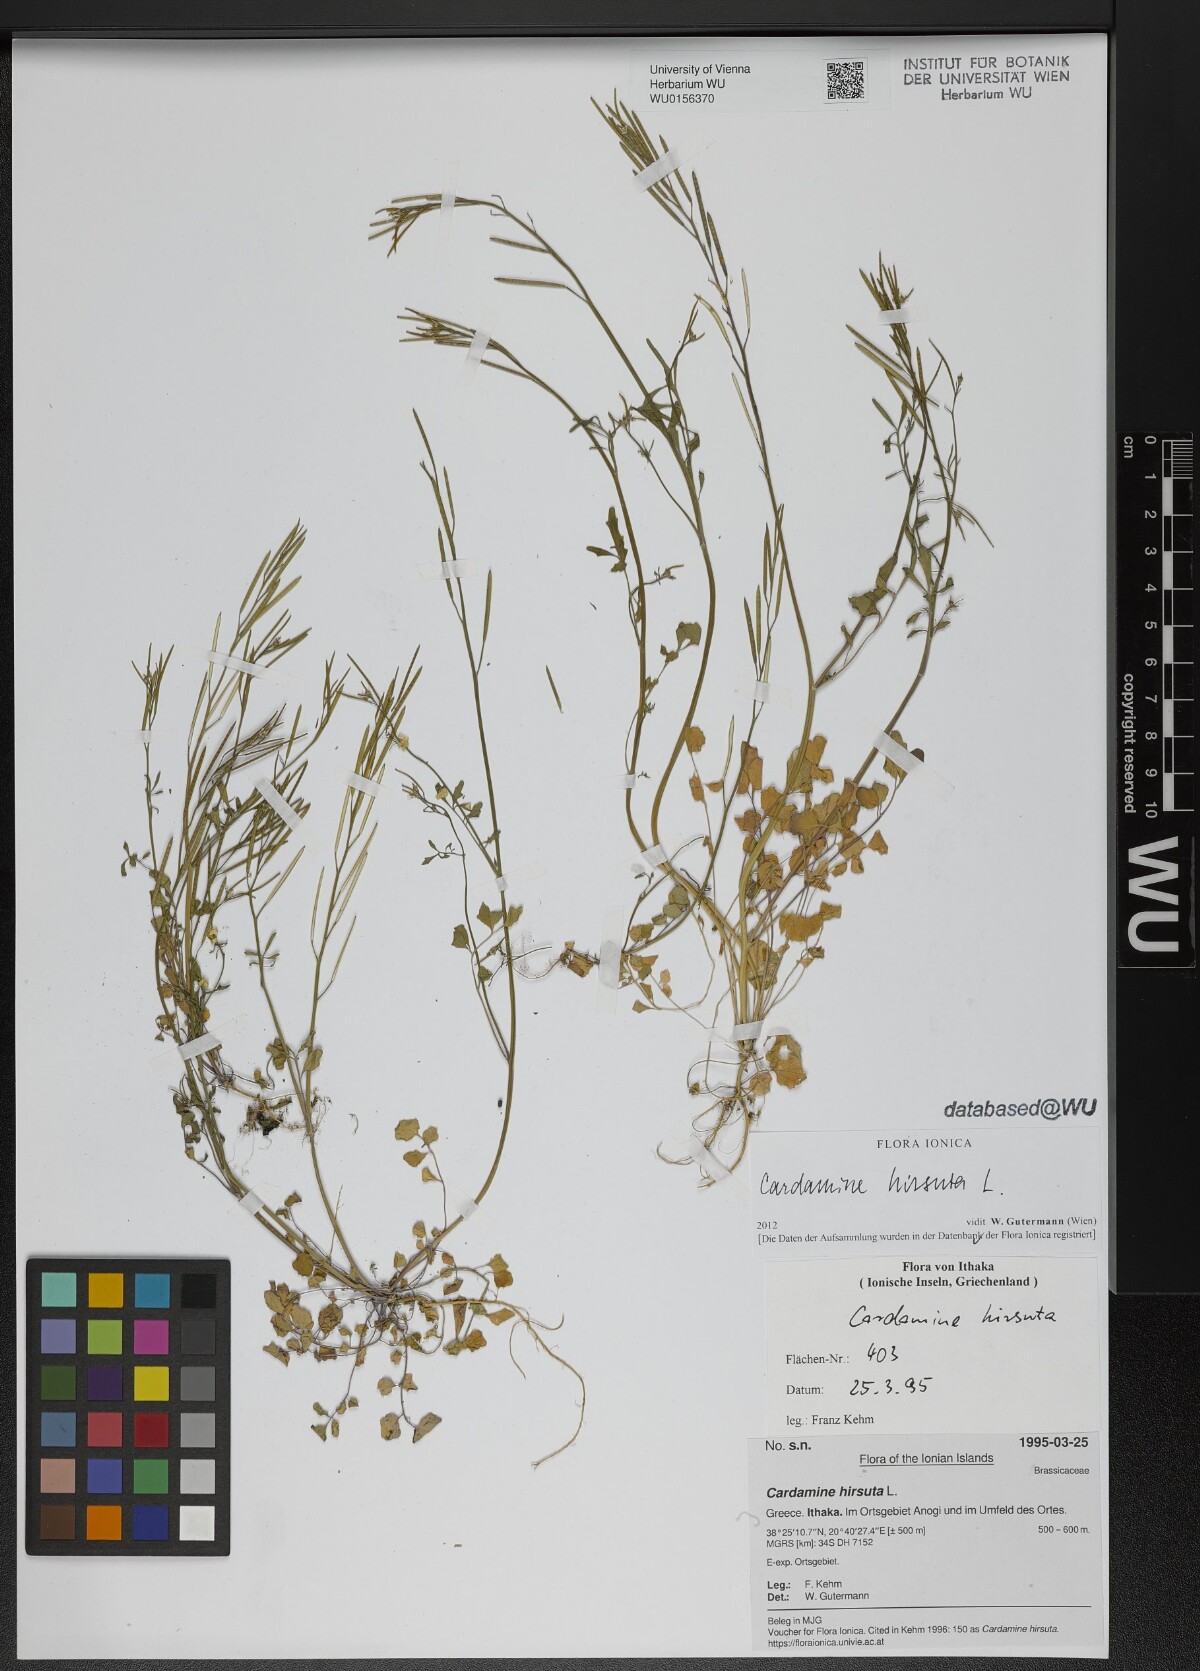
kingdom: Plantae
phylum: Tracheophyta
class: Magnoliopsida
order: Brassicales
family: Brassicaceae
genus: Cardamine
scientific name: Cardamine hirsuta
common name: Hairy bittercress
